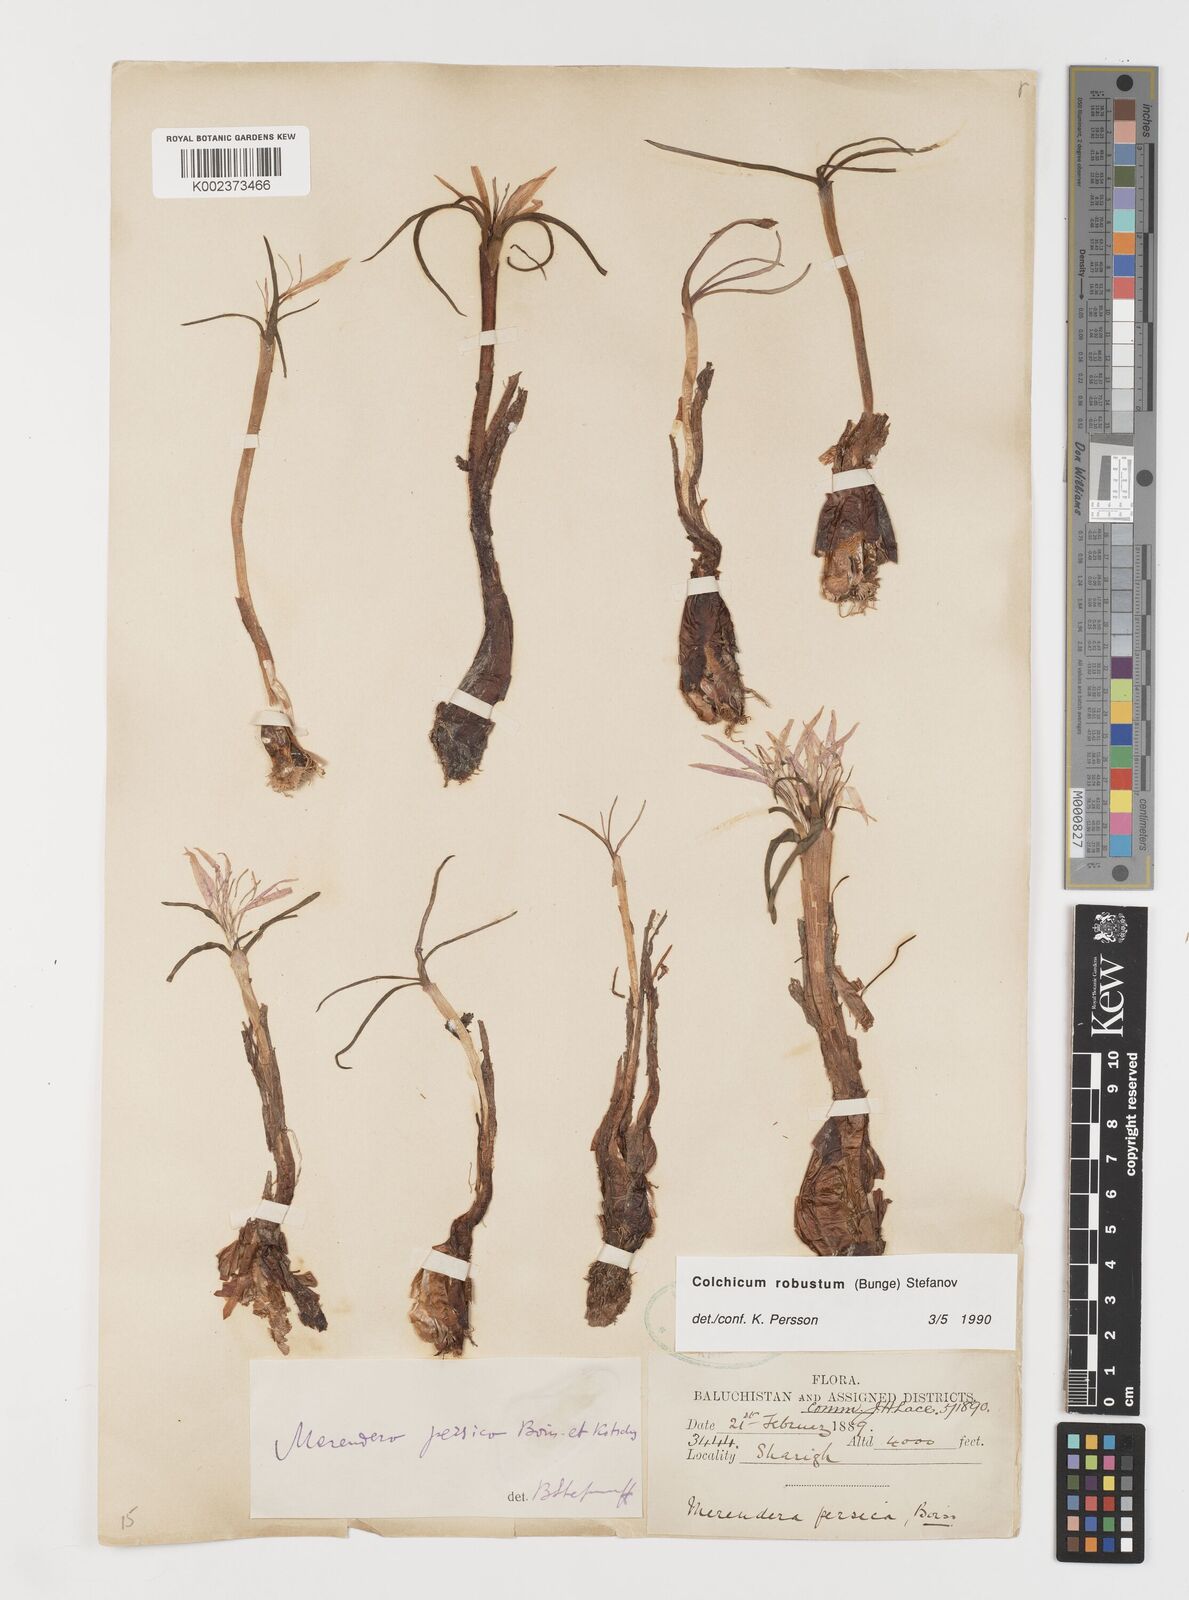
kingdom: Plantae
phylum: Tracheophyta
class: Liliopsida
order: Liliales
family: Colchicaceae
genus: Colchicum
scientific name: Colchicum robustum
